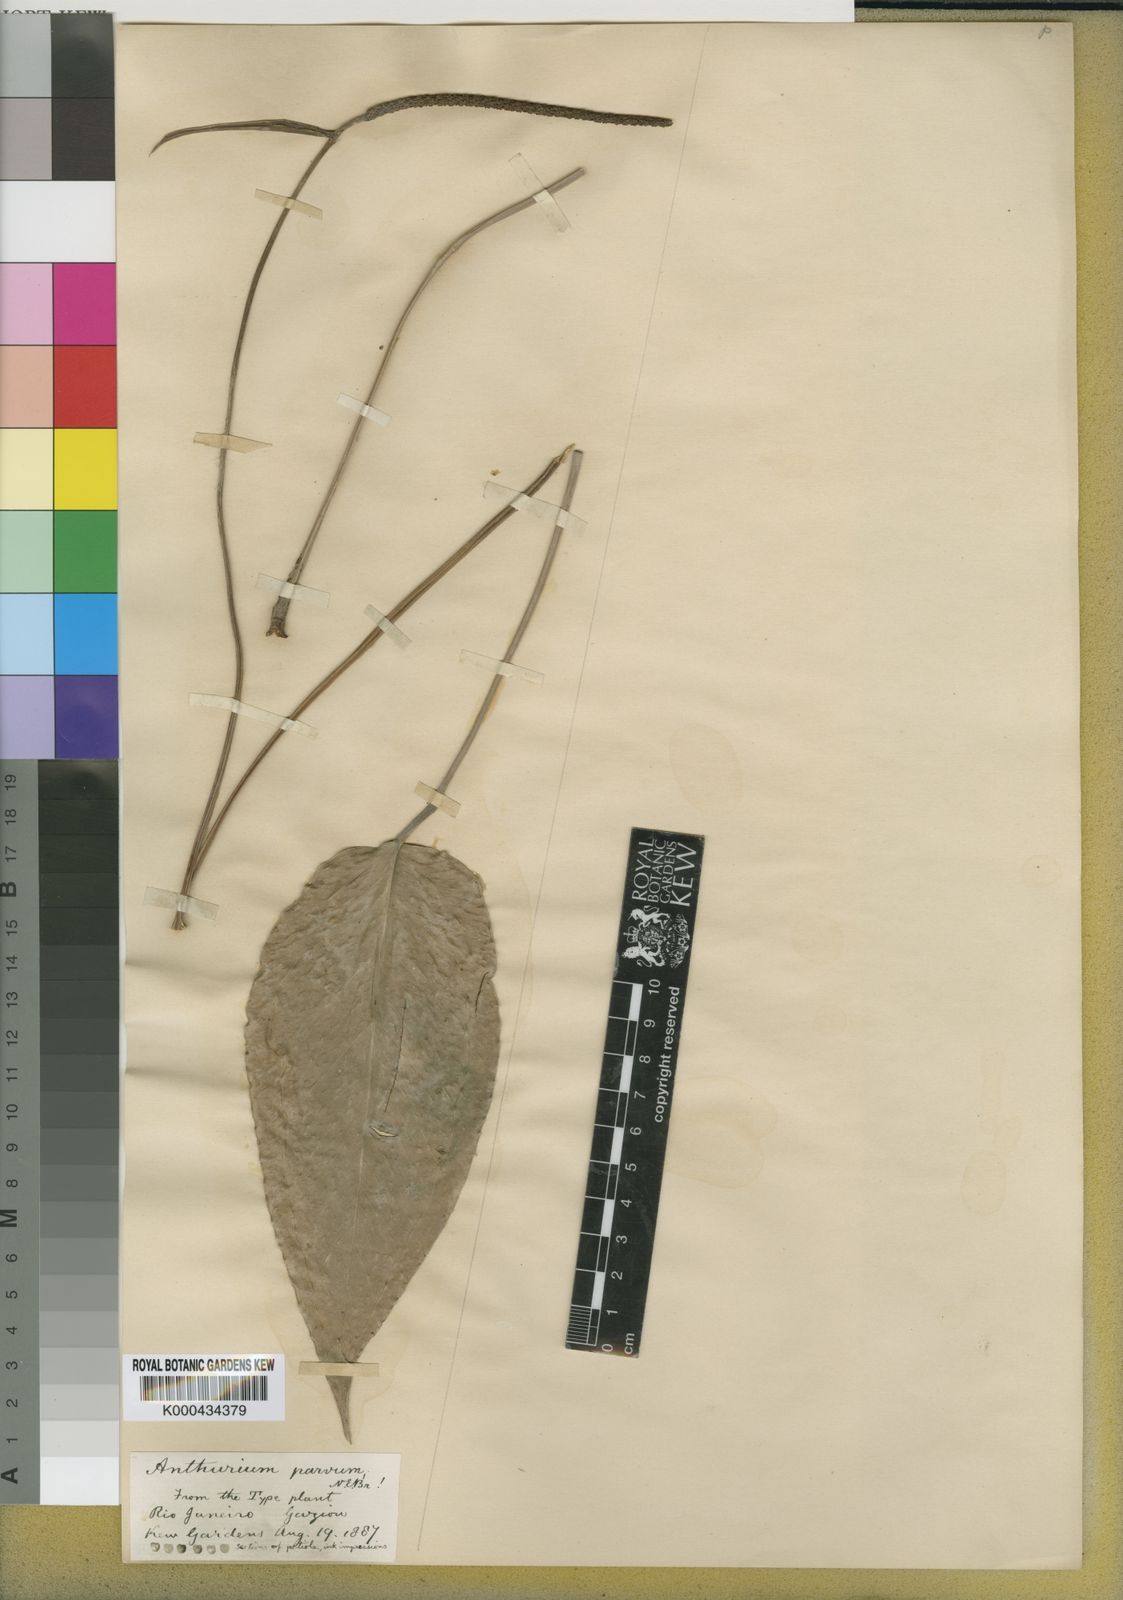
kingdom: Plantae
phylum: Tracheophyta
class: Liliopsida
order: Alismatales
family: Araceae
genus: Anthurium
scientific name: Anthurium augustinum
